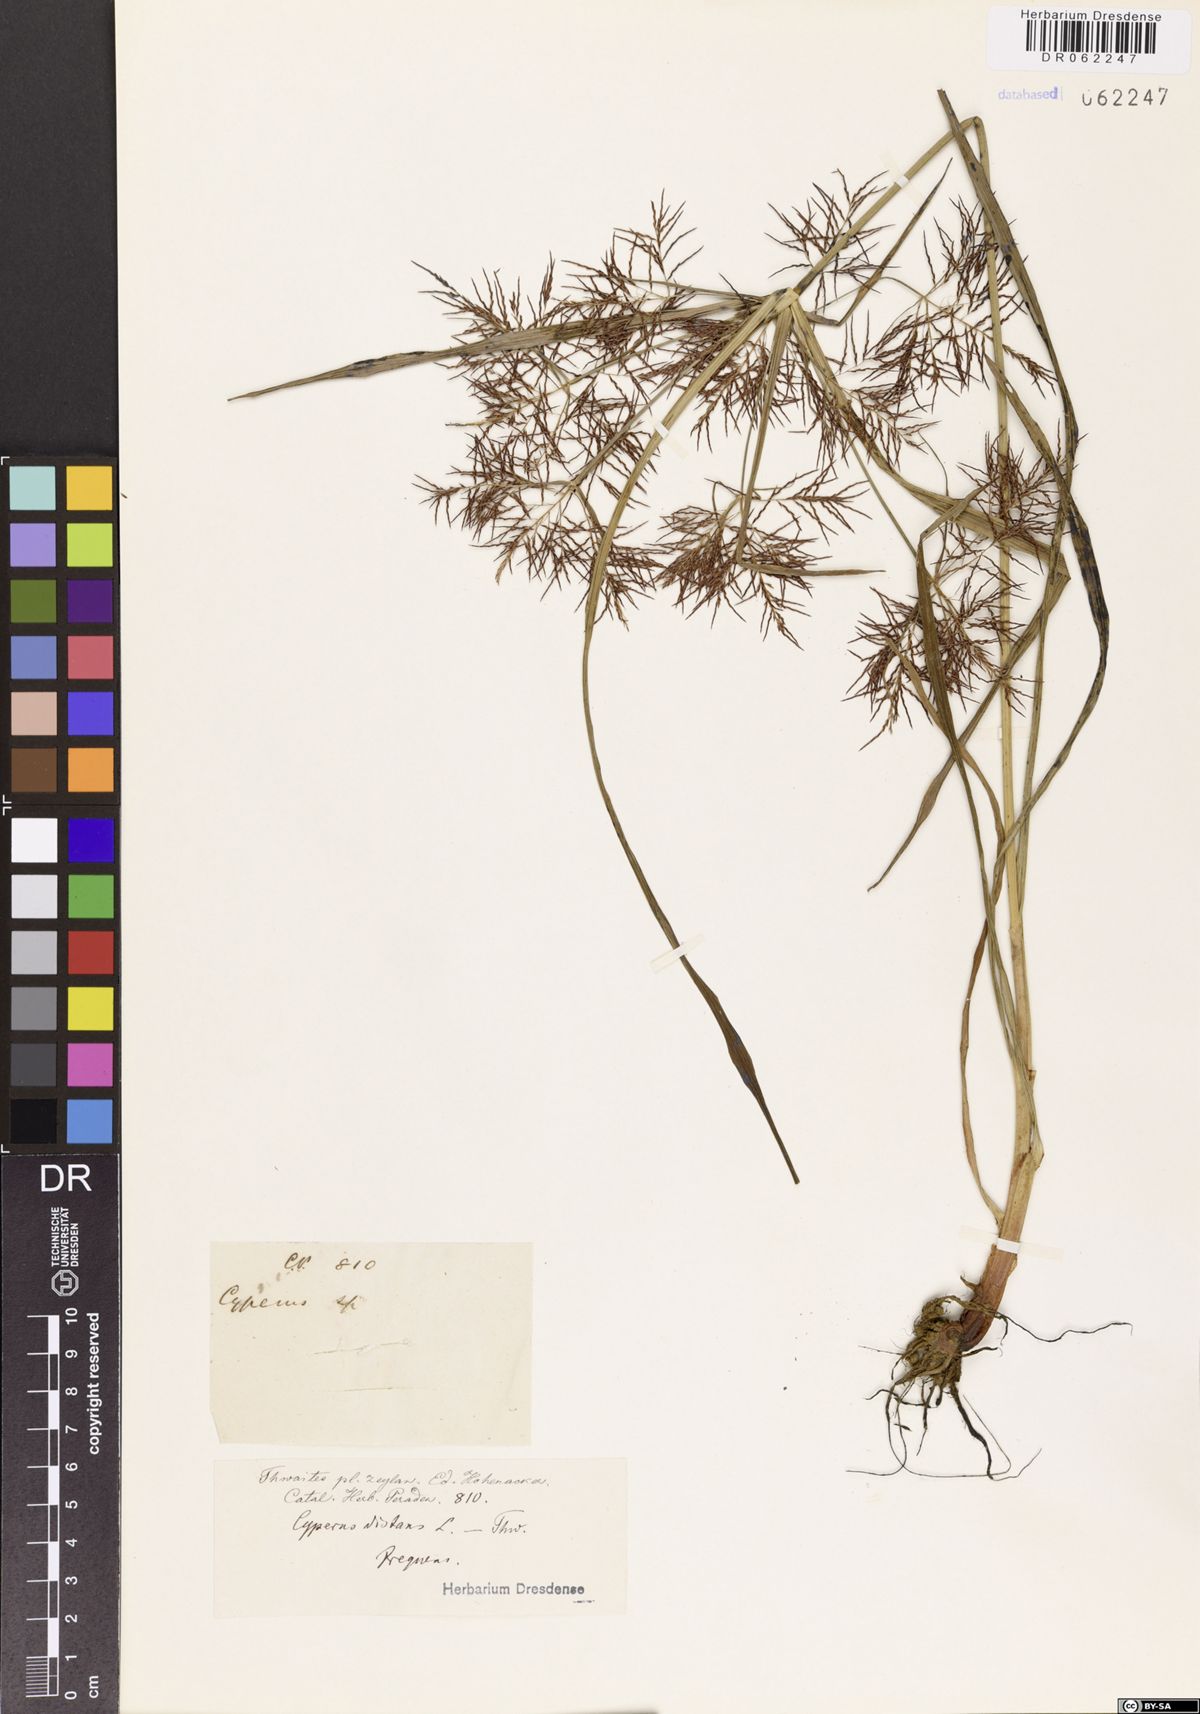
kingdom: Plantae
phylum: Tracheophyta
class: Liliopsida
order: Poales
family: Cyperaceae
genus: Cyperus
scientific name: Cyperus distans
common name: Slender cyperus
